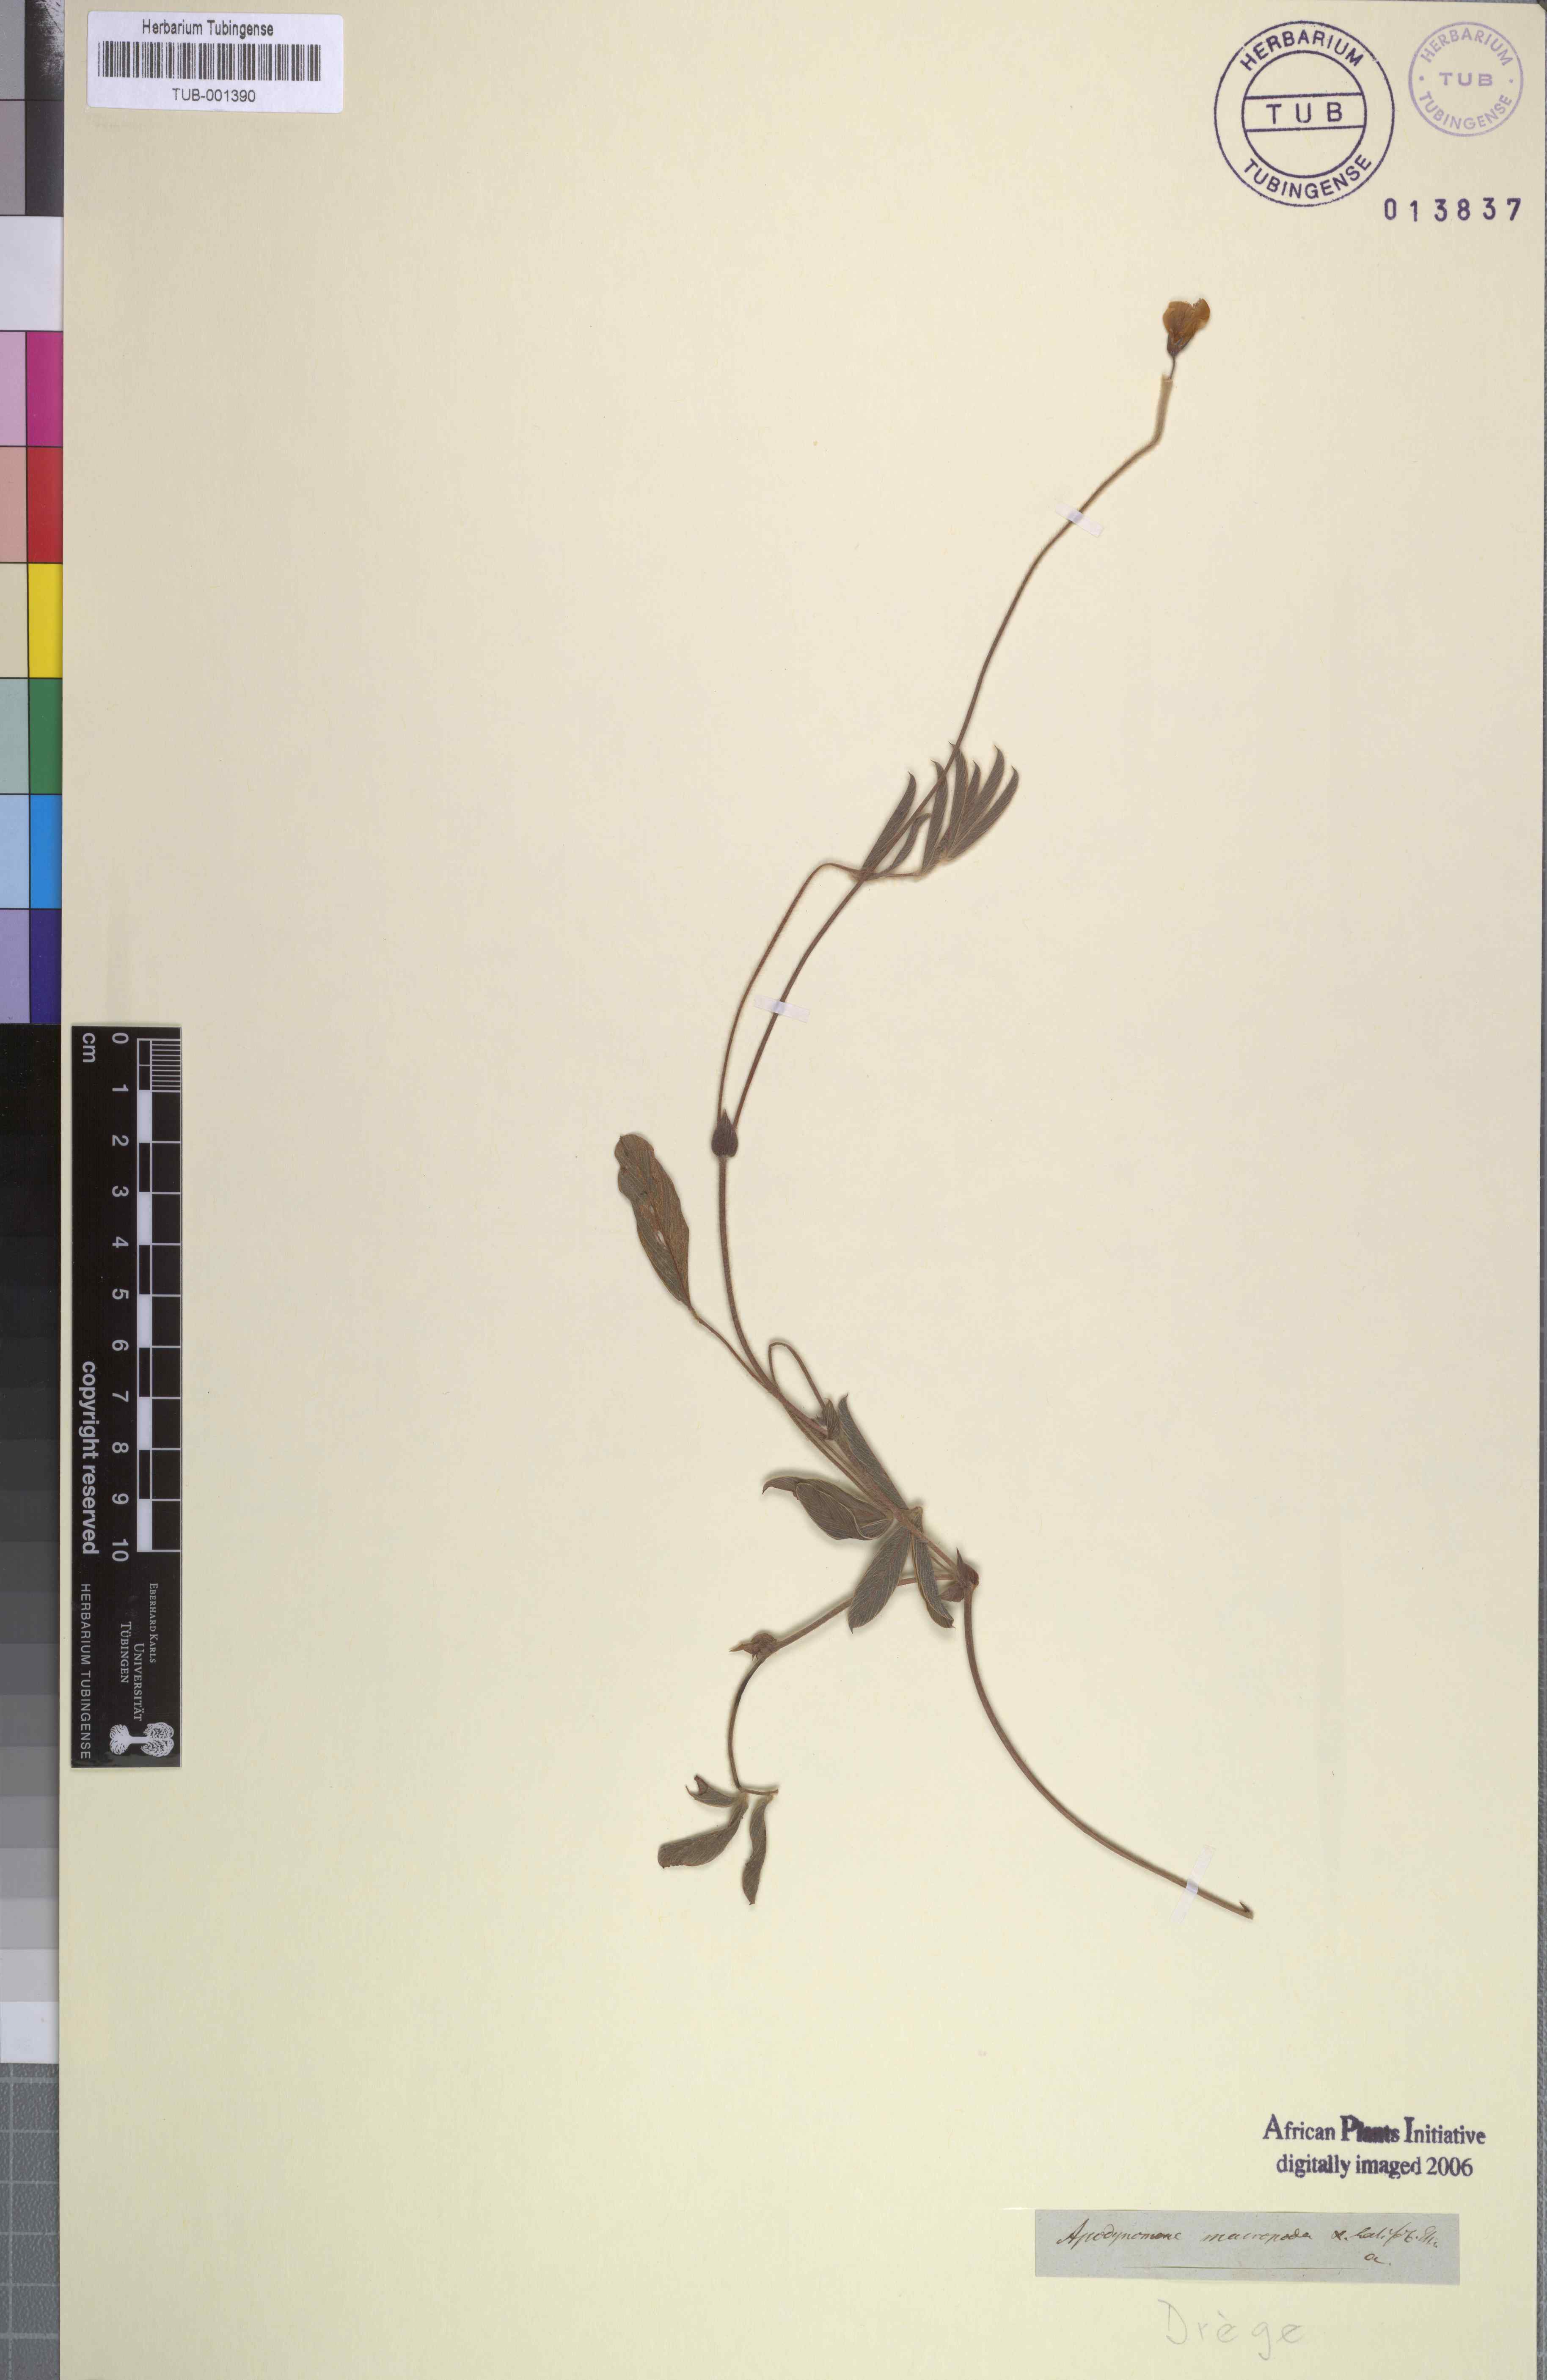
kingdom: Plantae
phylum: Tracheophyta
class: Magnoliopsida
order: Fabales
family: Fabaceae
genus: Tephrosia
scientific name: Tephrosia macropoda
